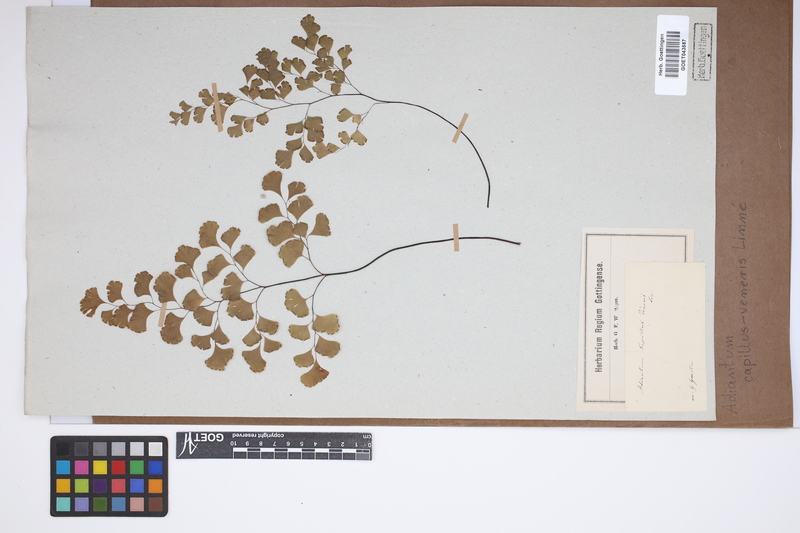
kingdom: Plantae
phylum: Tracheophyta
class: Polypodiopsida
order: Polypodiales
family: Pteridaceae
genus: Adiantum
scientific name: Adiantum capillus-veneris
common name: Maidenhair fern
